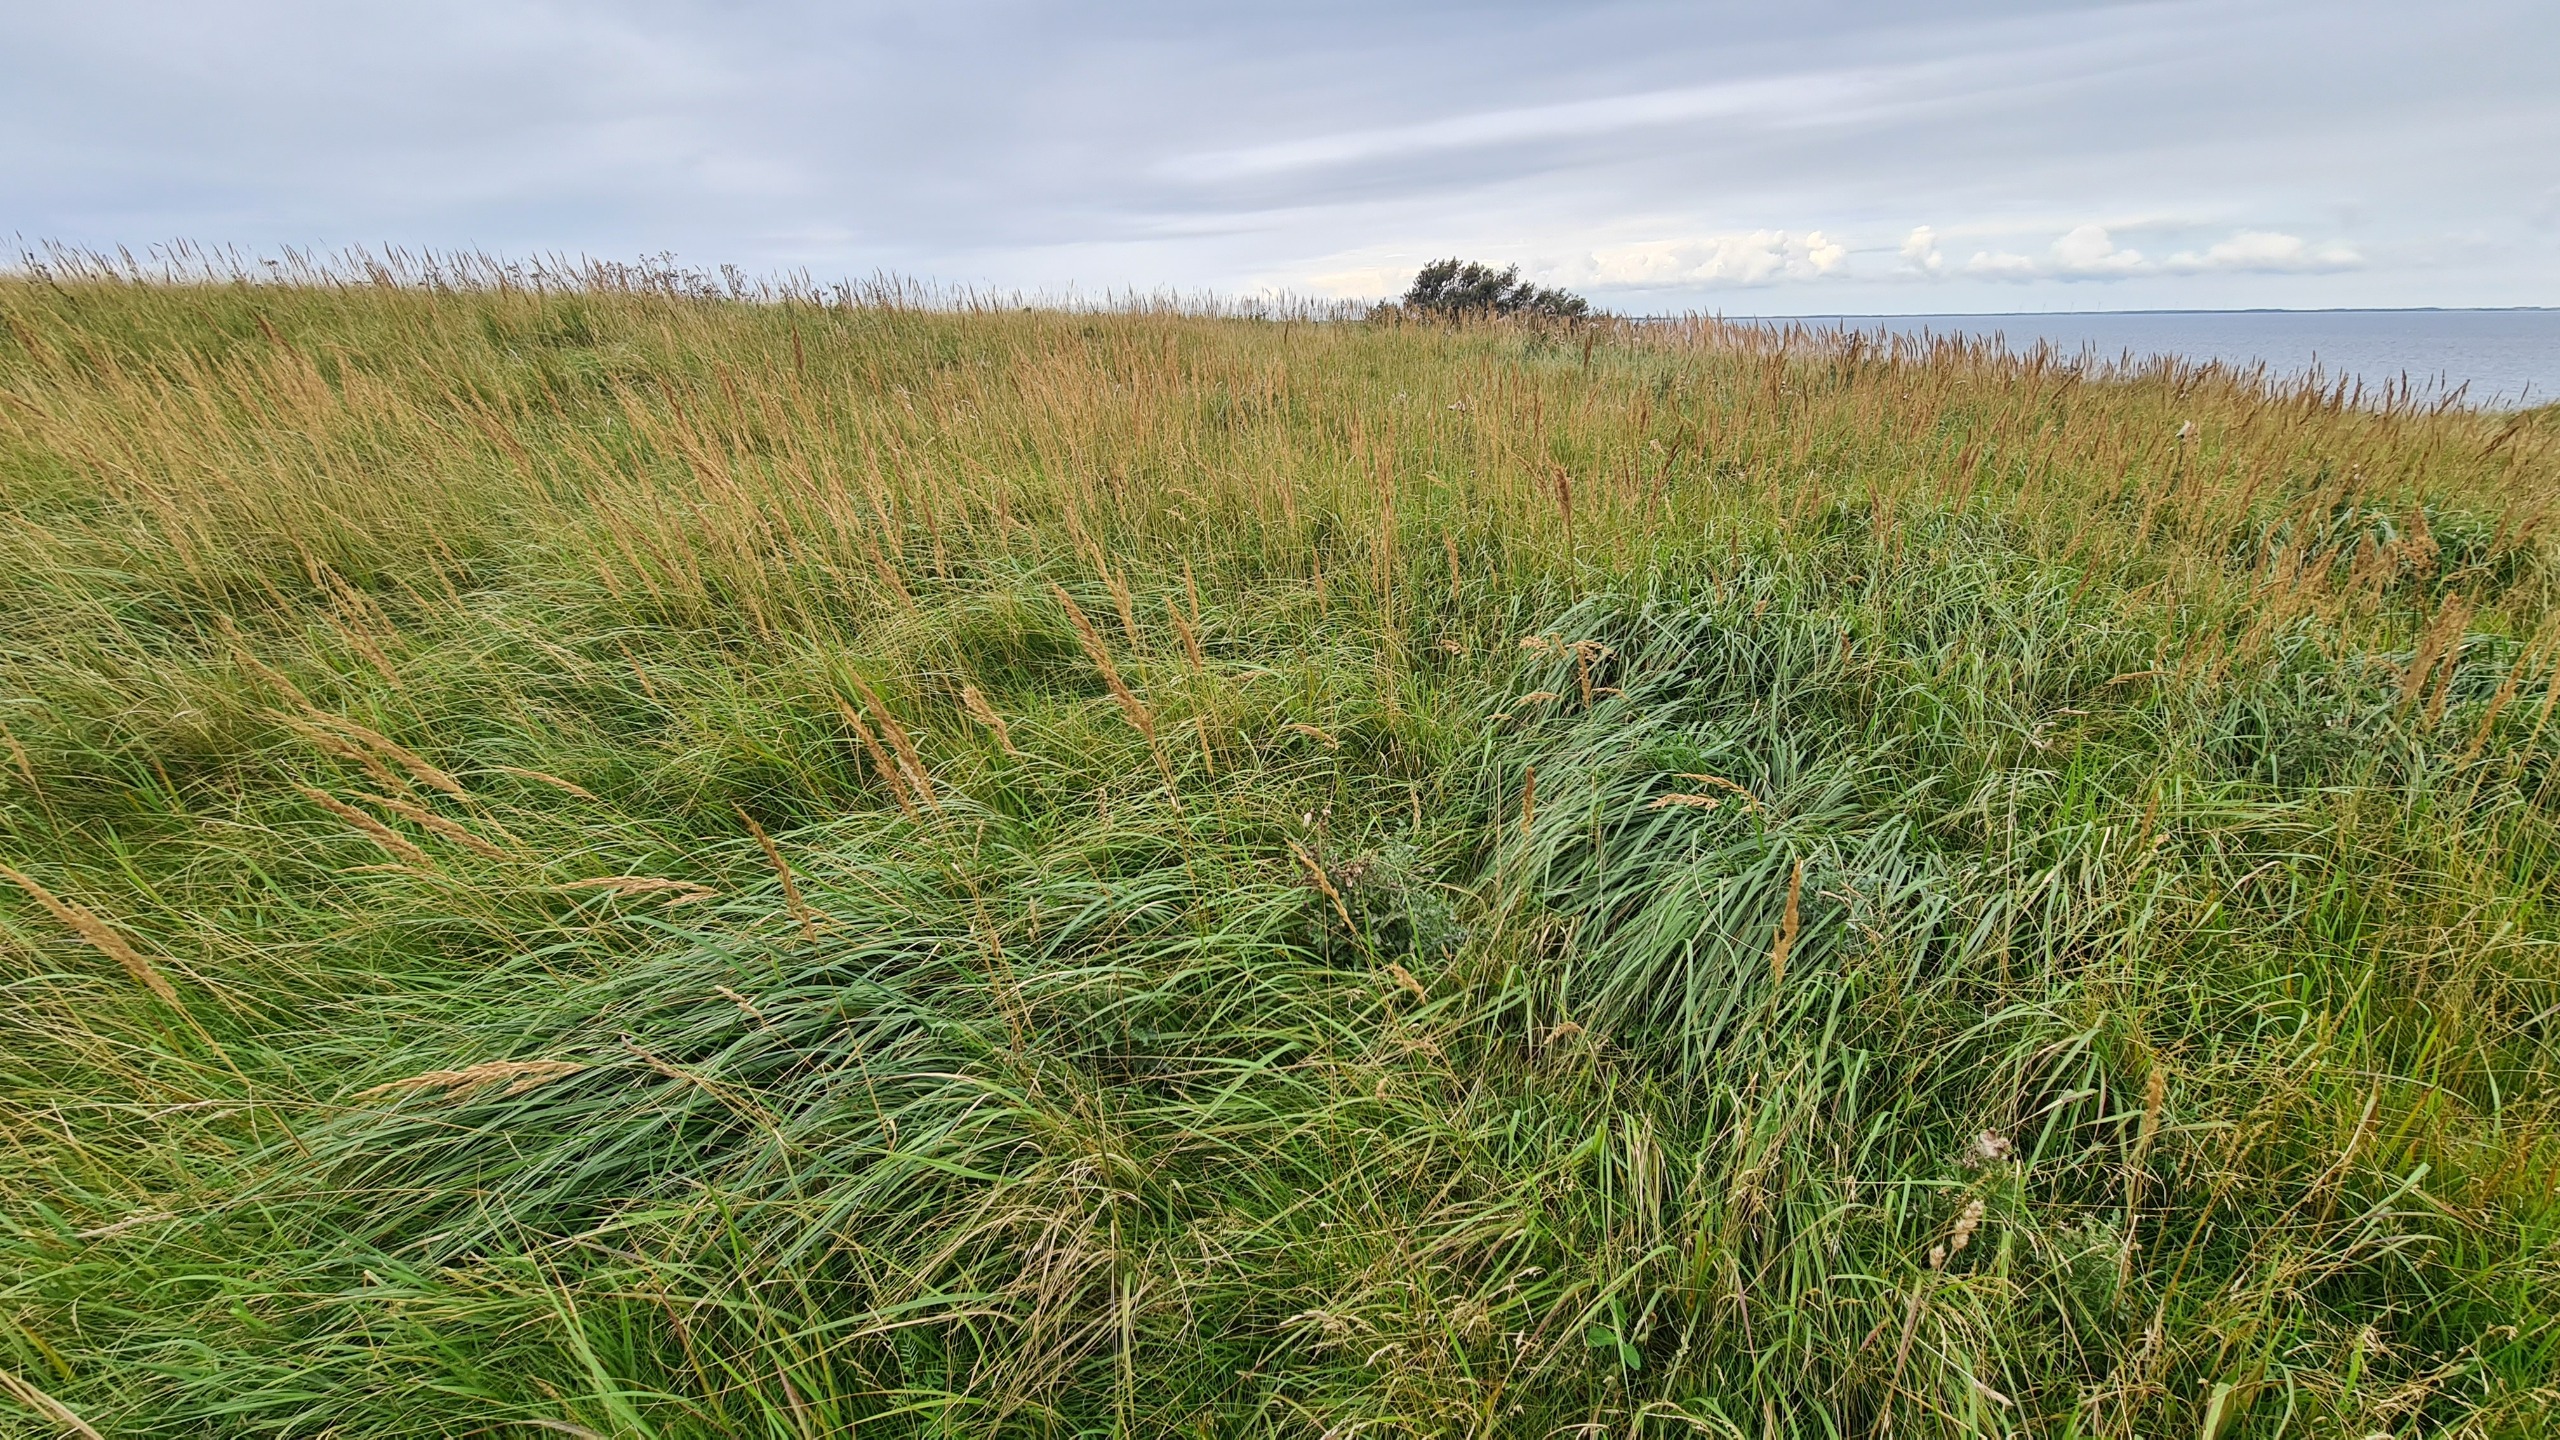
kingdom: Plantae
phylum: Tracheophyta
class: Liliopsida
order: Poales
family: Poaceae
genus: Calamagrostis
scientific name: Calamagrostis epigejos
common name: Bjerg-rørhvene
